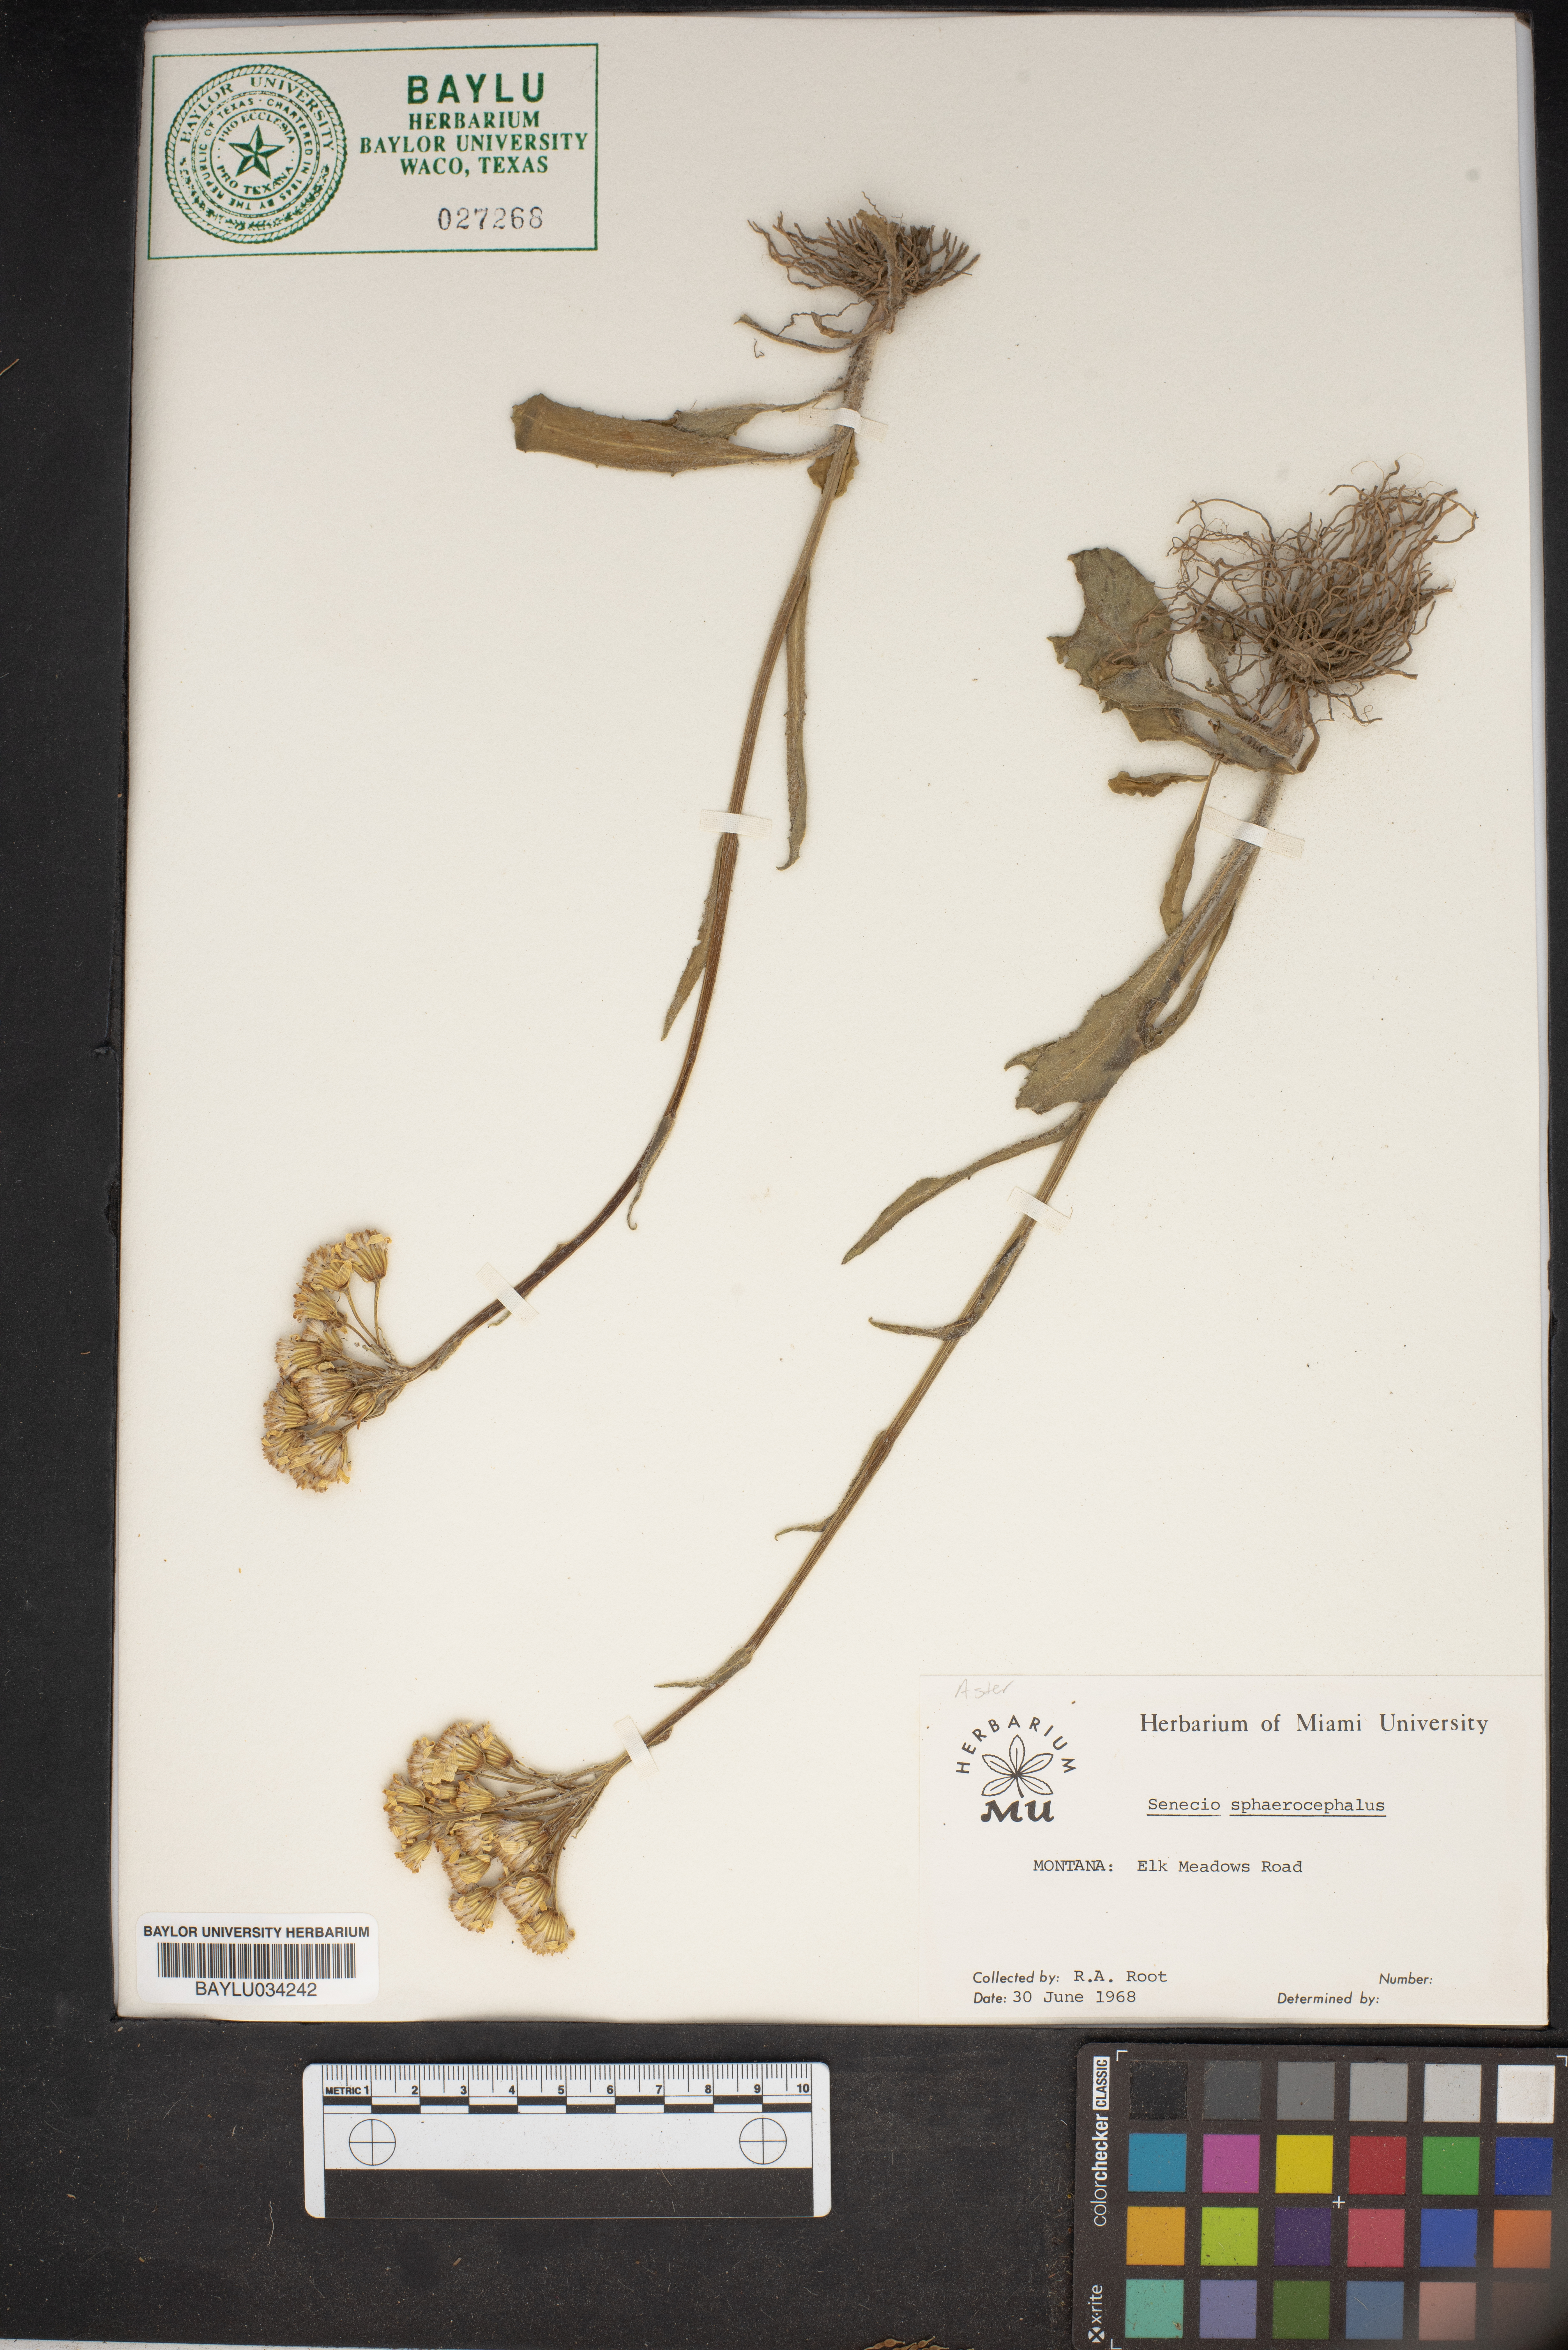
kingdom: Plantae
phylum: Tracheophyta
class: Magnoliopsida
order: Asterales
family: Asteraceae
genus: Senecio
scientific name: Senecio sphaerocephalus
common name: Mountain-marsh butterweed
